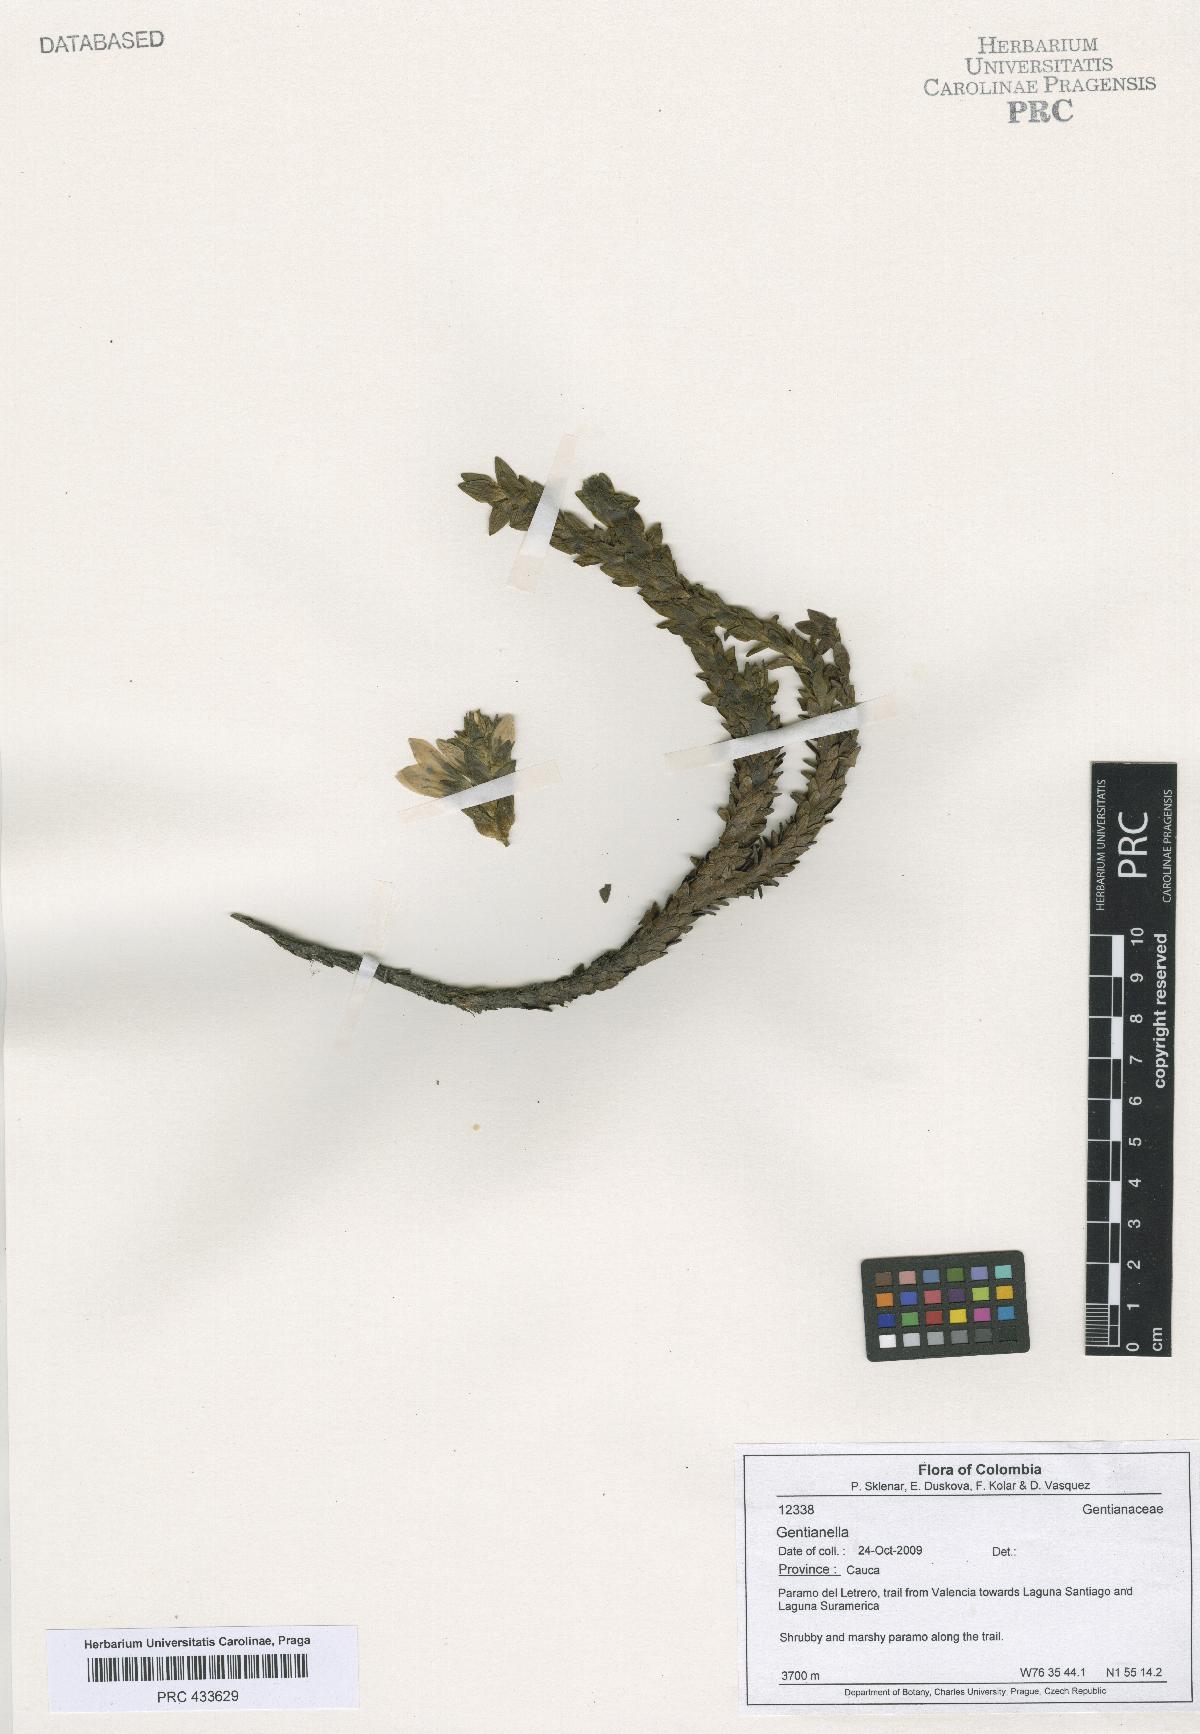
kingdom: Plantae
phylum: Tracheophyta
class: Magnoliopsida
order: Gentianales
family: Gentianaceae
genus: Gentianella
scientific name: Gentianella
